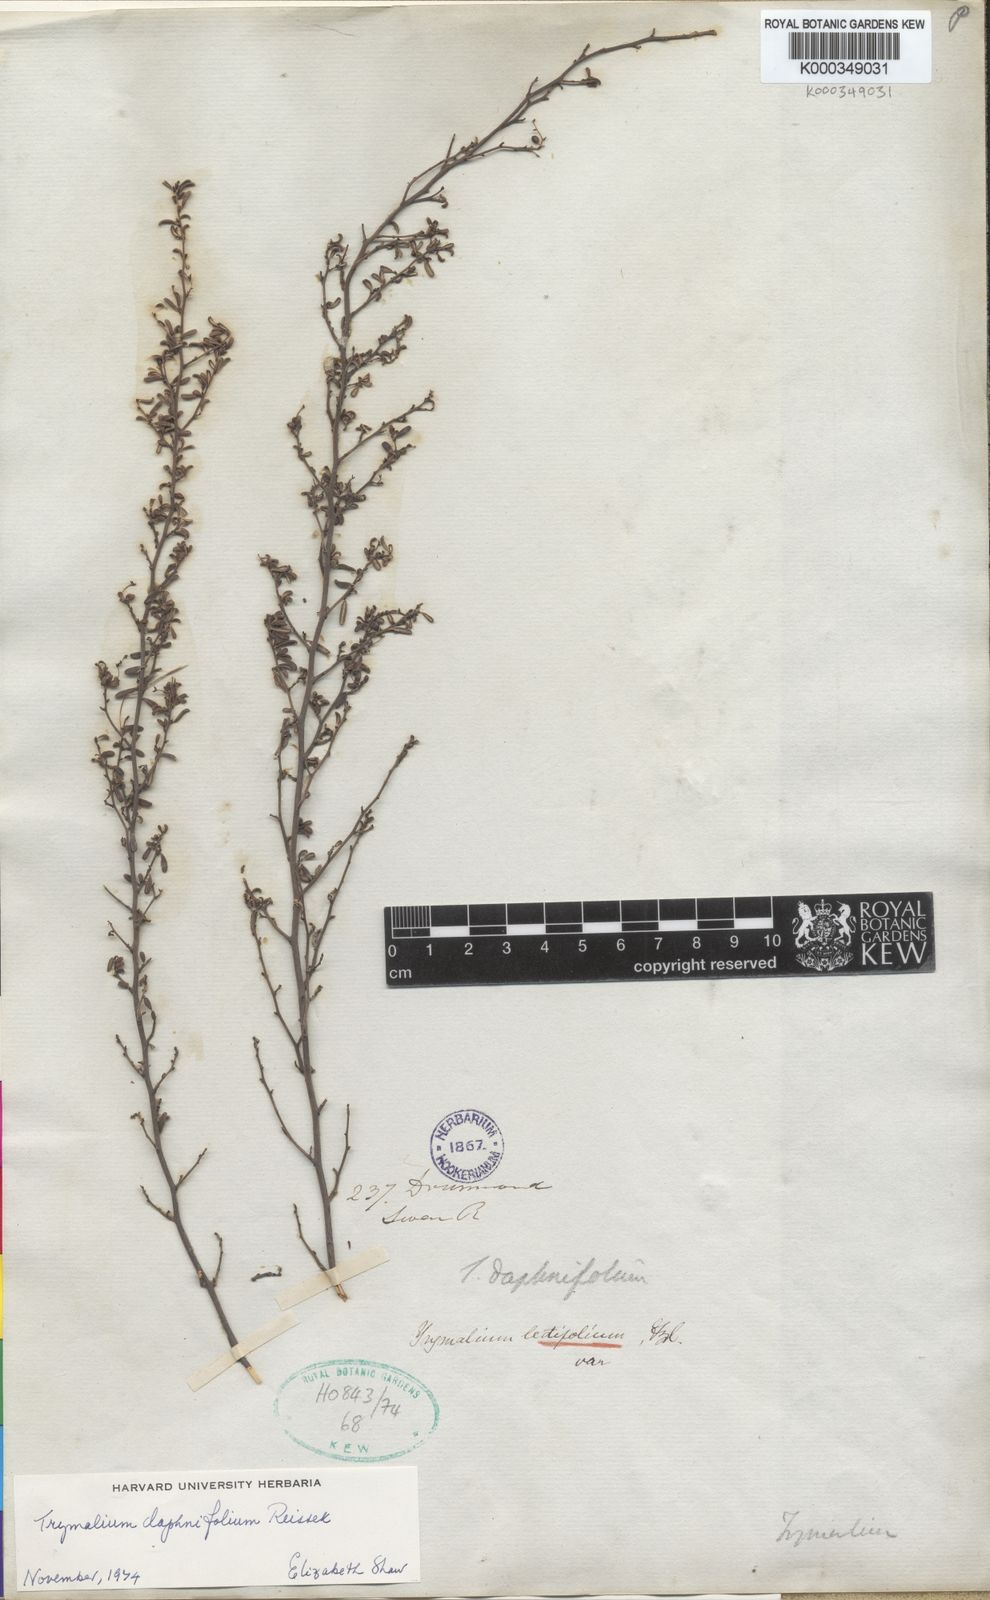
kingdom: Plantae
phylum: Tracheophyta
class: Magnoliopsida
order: Rosales
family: Rhamnaceae
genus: Trymalium
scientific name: Trymalium daphnifolium
